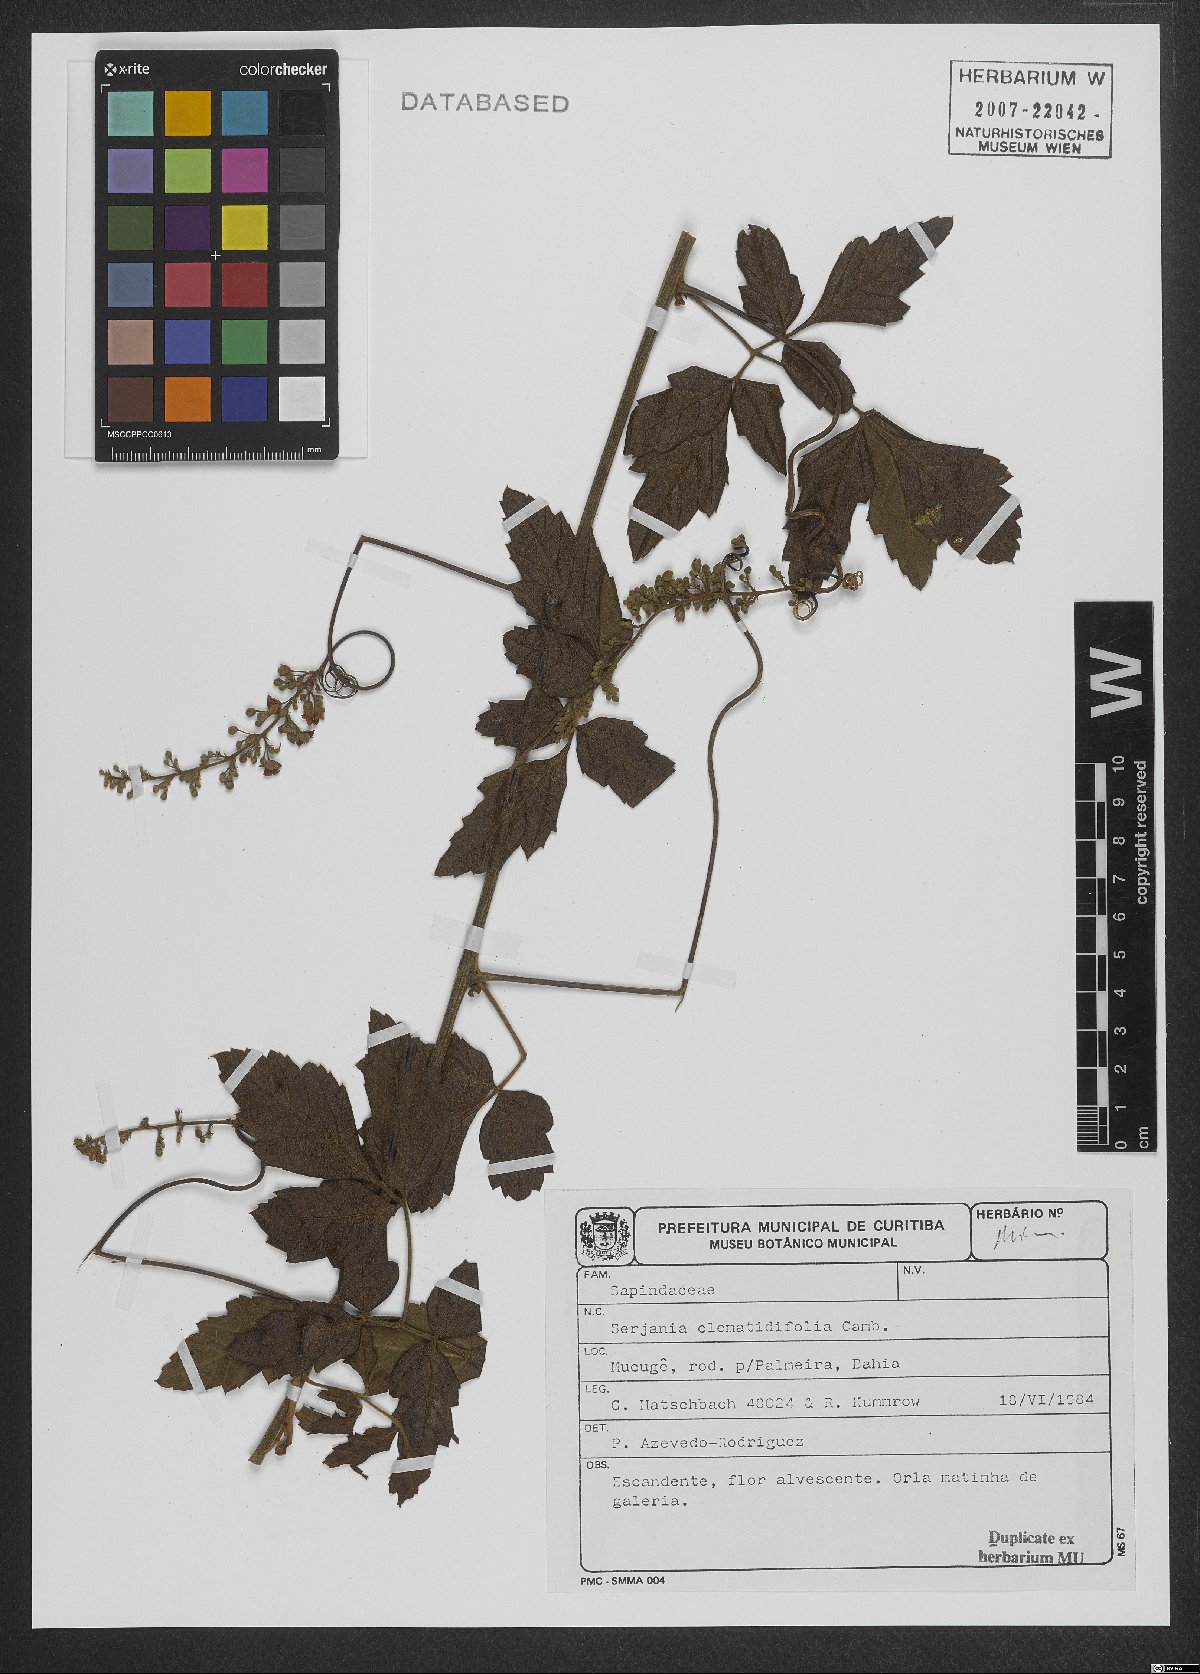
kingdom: Plantae
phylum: Tracheophyta
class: Magnoliopsida
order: Sapindales
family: Sapindaceae
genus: Serjania
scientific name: Serjania clematidifolia
